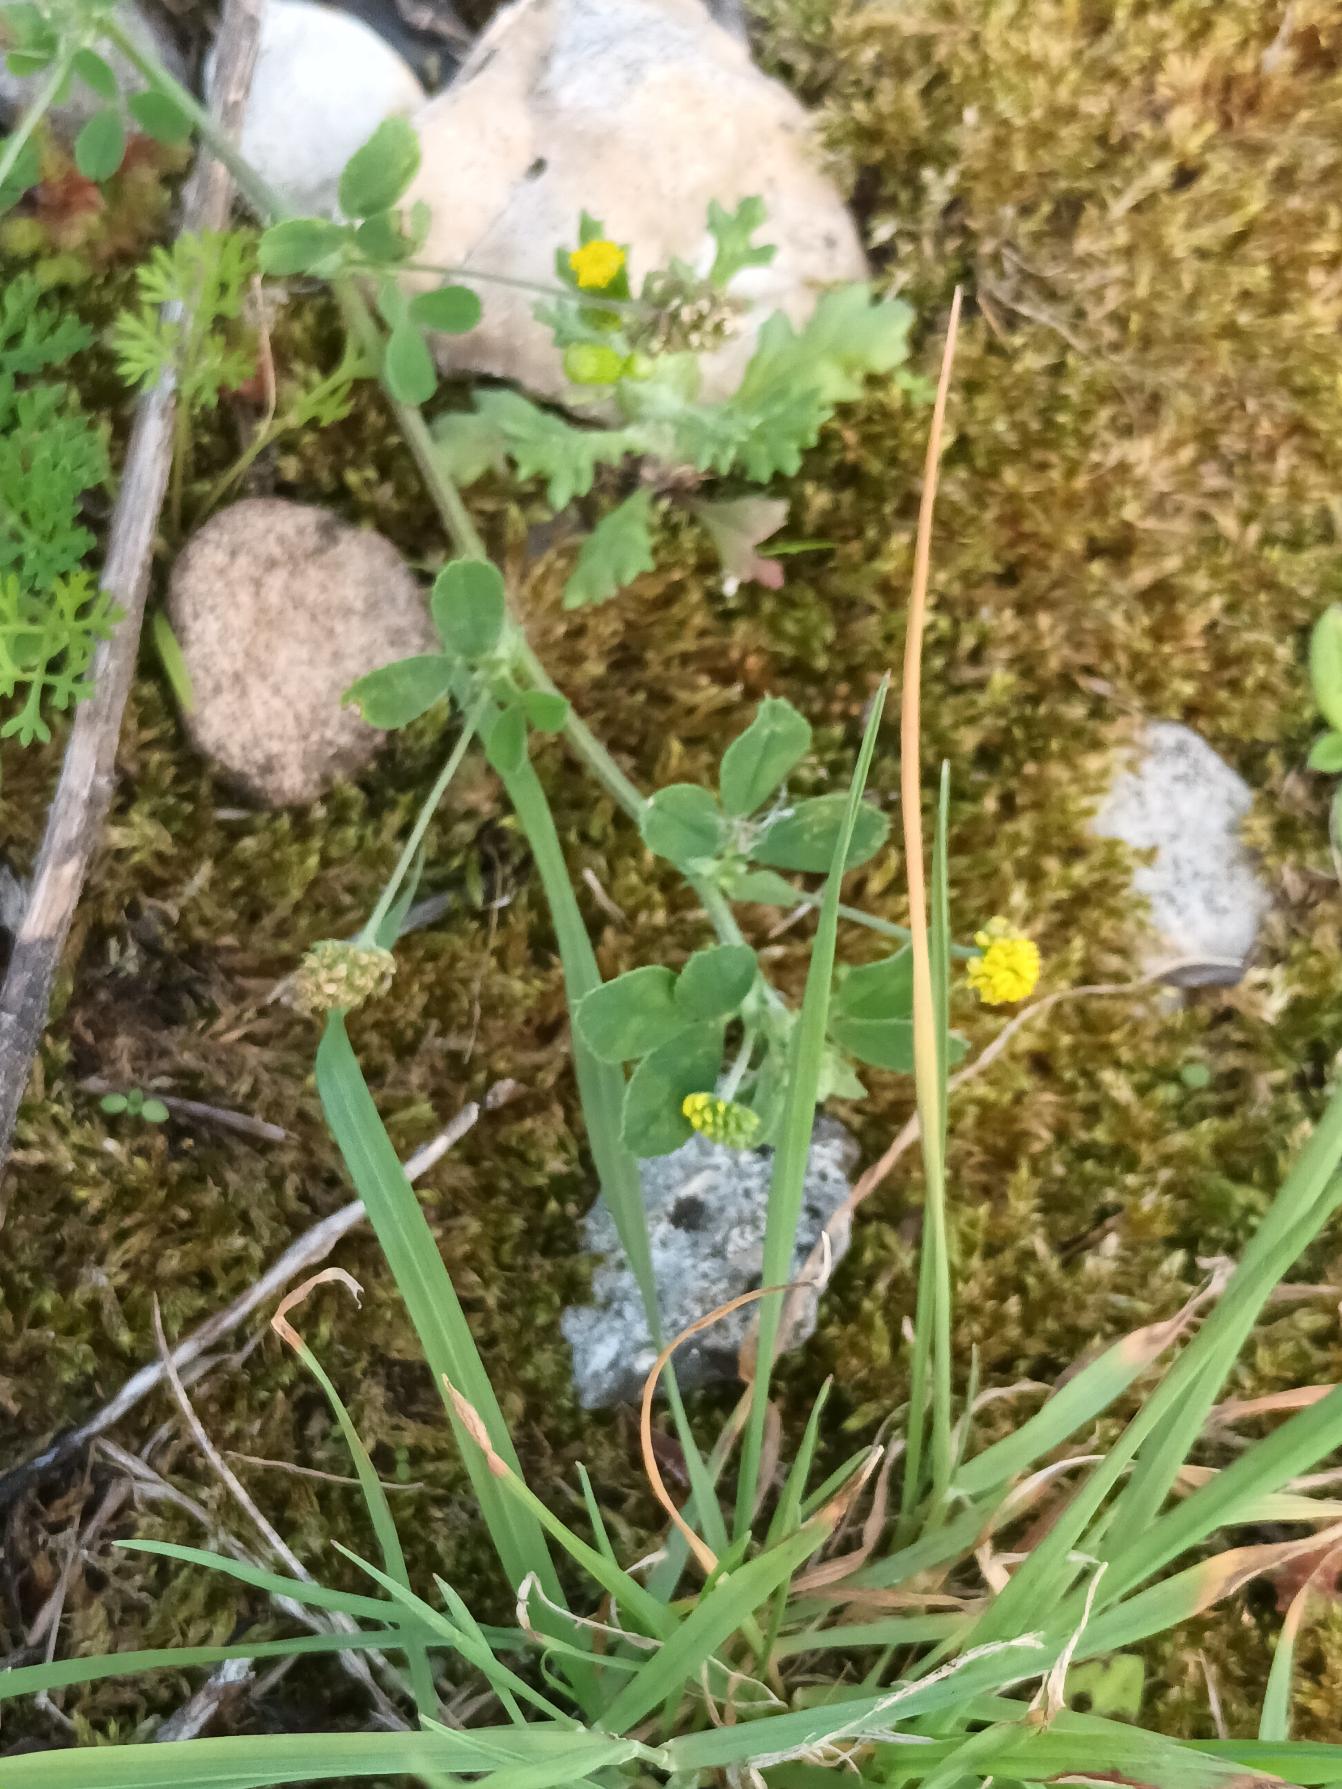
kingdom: Plantae
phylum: Tracheophyta
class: Magnoliopsida
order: Fabales
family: Fabaceae
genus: Medicago
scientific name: Medicago lupulina
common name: Humle-sneglebælg
